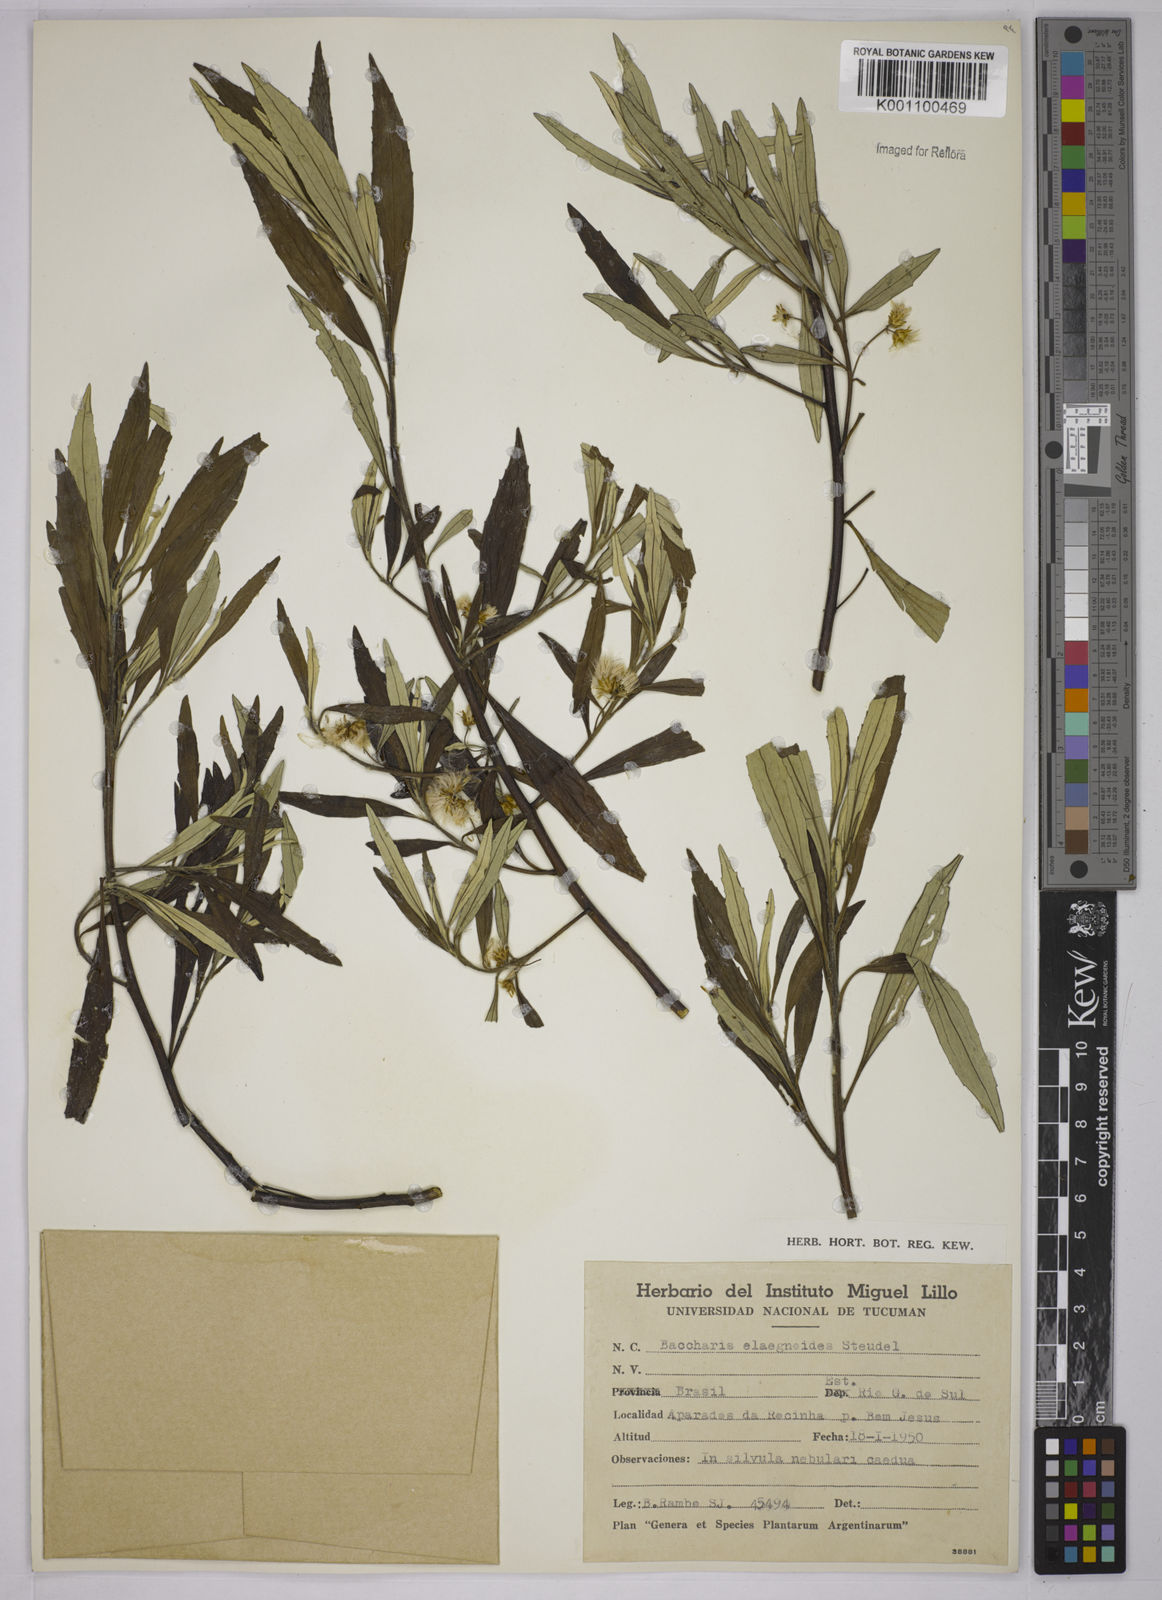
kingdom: Plantae
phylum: Tracheophyta
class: Magnoliopsida
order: Asterales
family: Asteraceae
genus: Baccharis
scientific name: Baccharis
